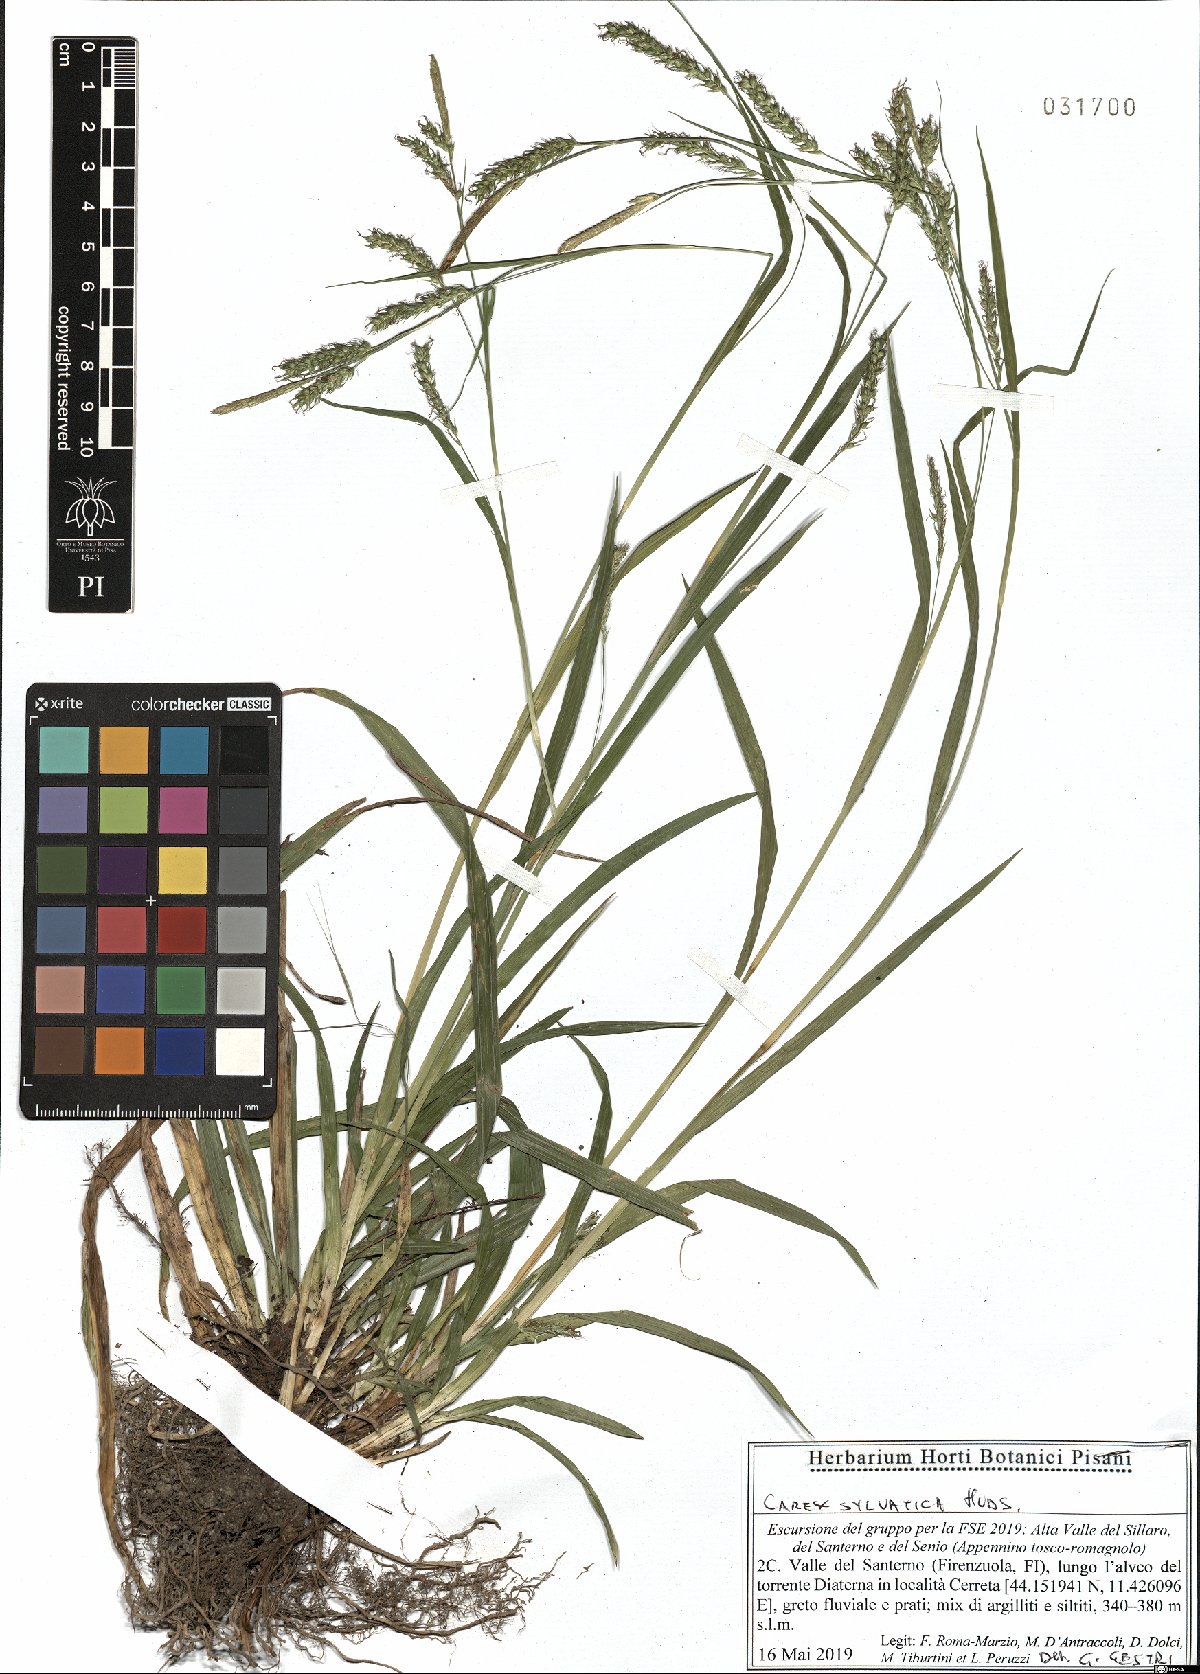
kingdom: Plantae
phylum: Tracheophyta
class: Liliopsida
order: Poales
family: Cyperaceae
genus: Carex
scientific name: Carex sylvatica
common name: Wood-sedge
